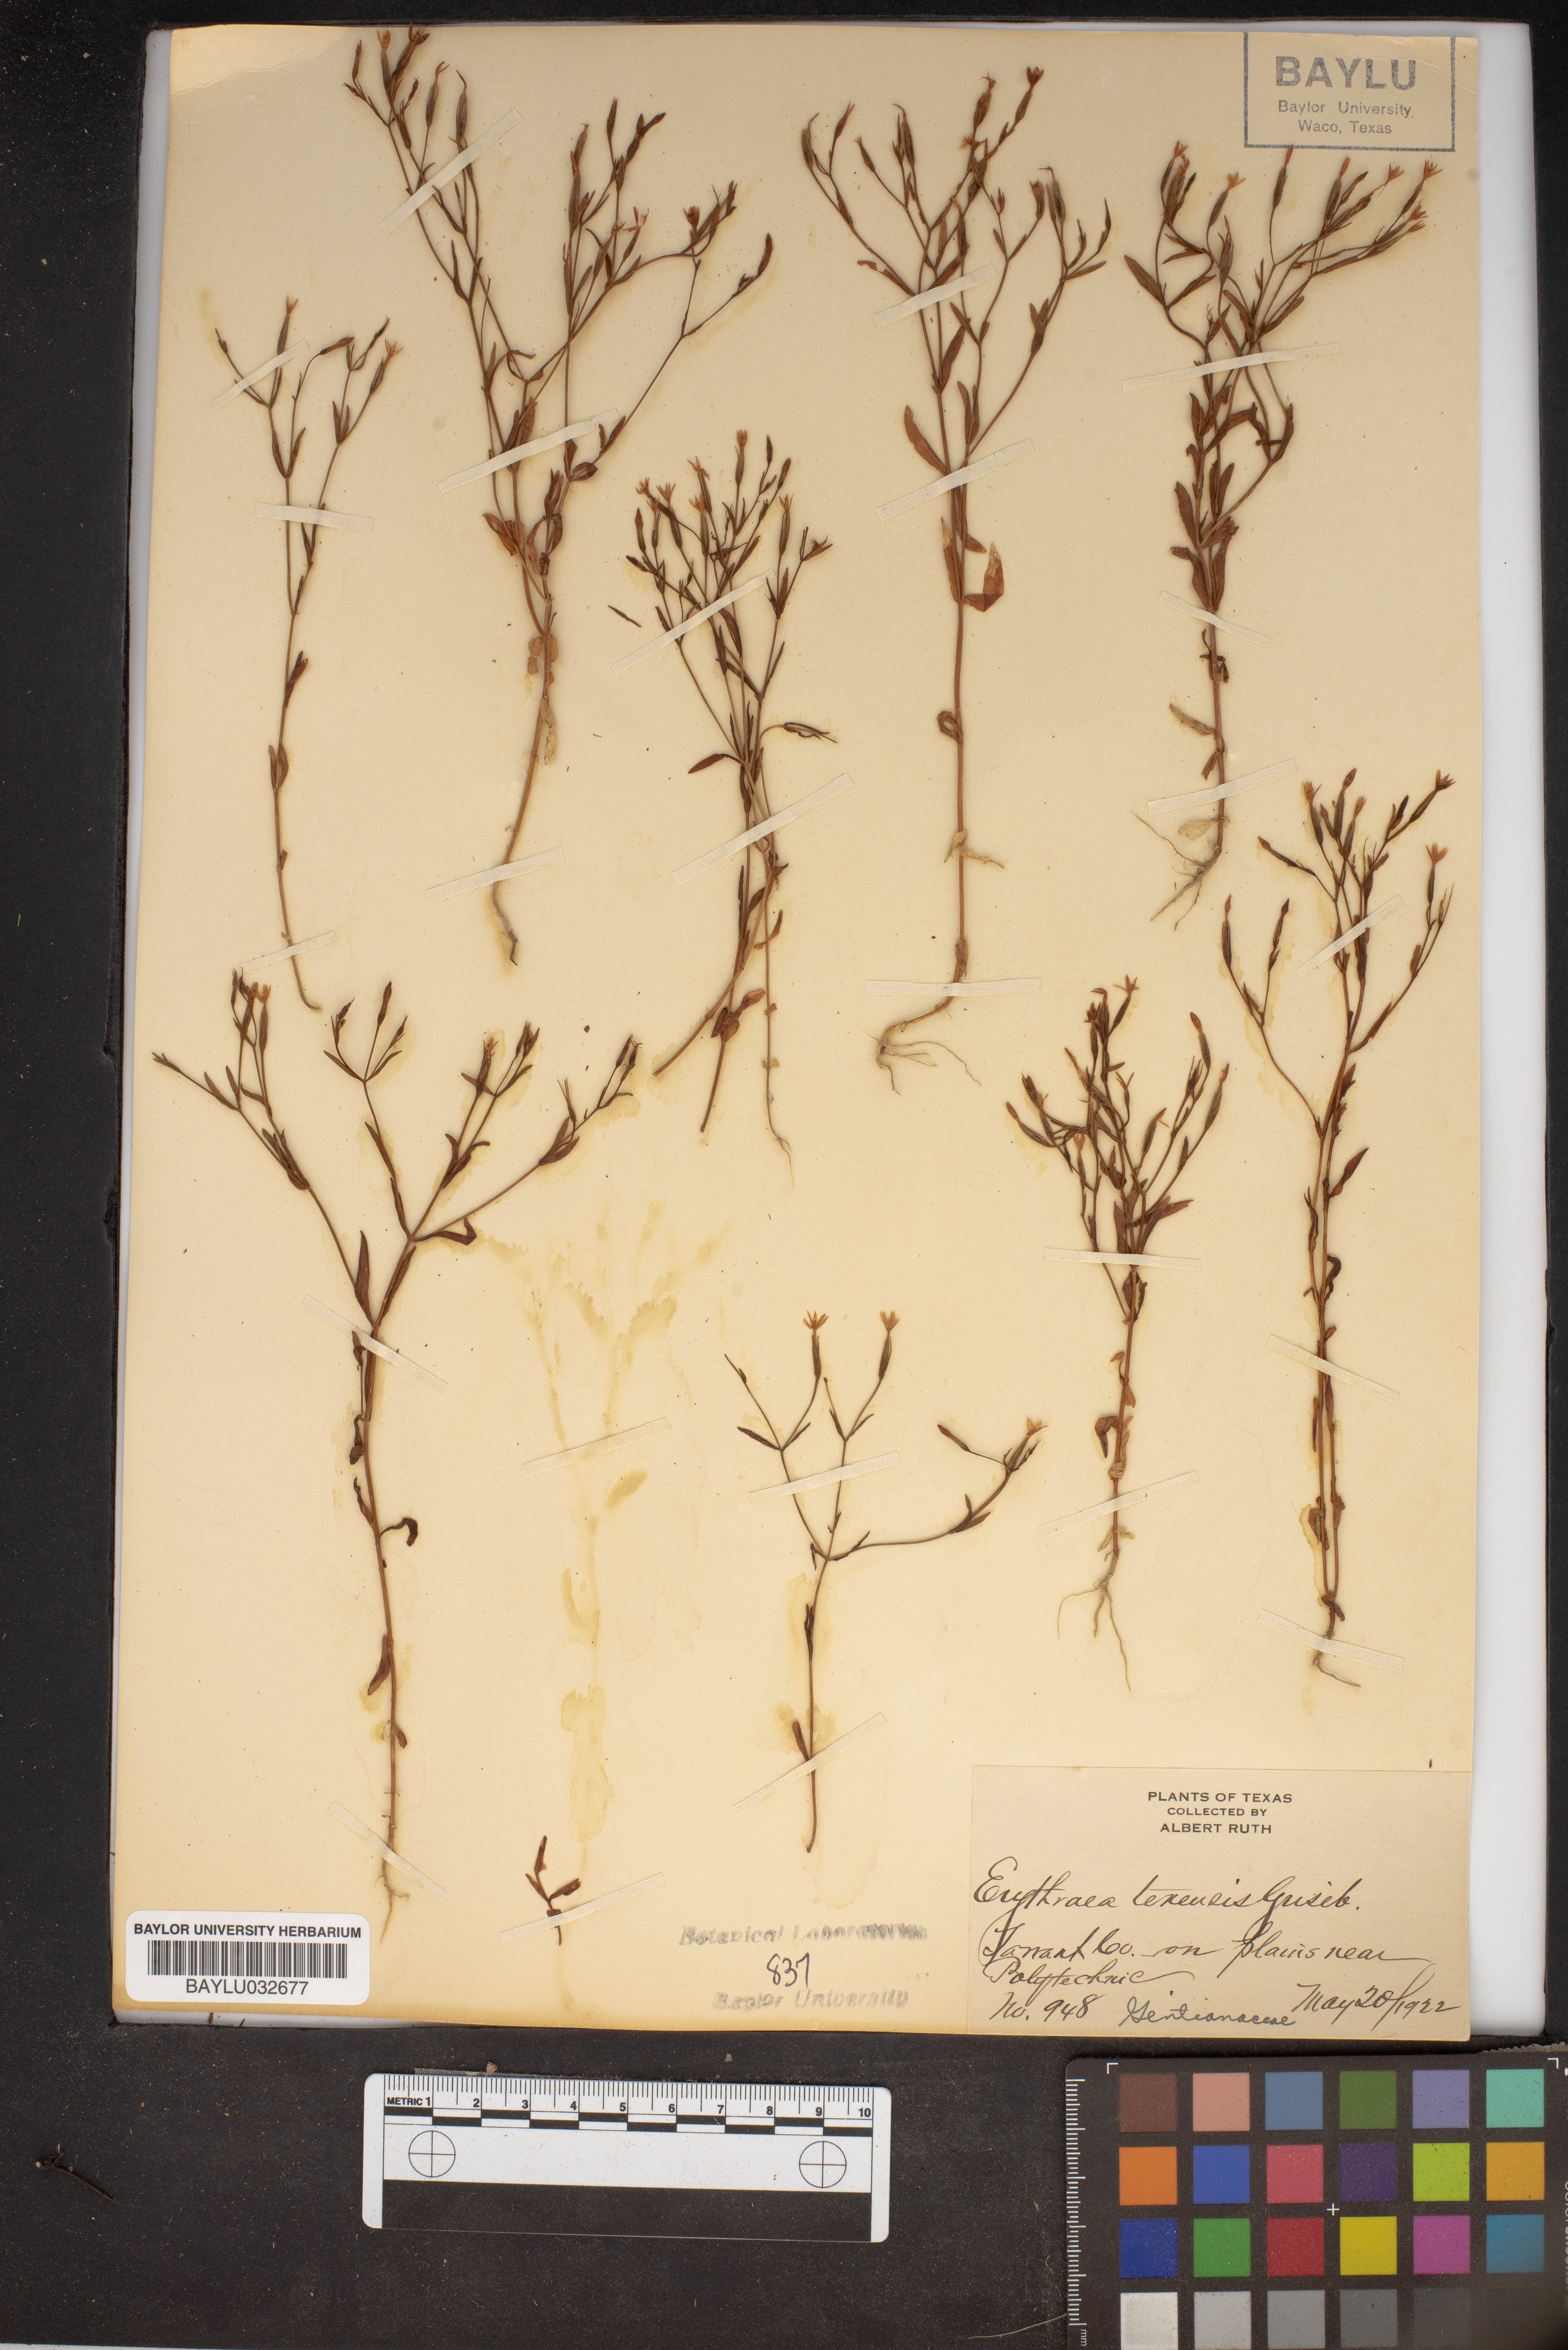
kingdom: Plantae
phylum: Tracheophyta
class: Magnoliopsida
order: Gentianales
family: Gentianaceae
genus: Zeltnera
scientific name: Zeltnera texensis
